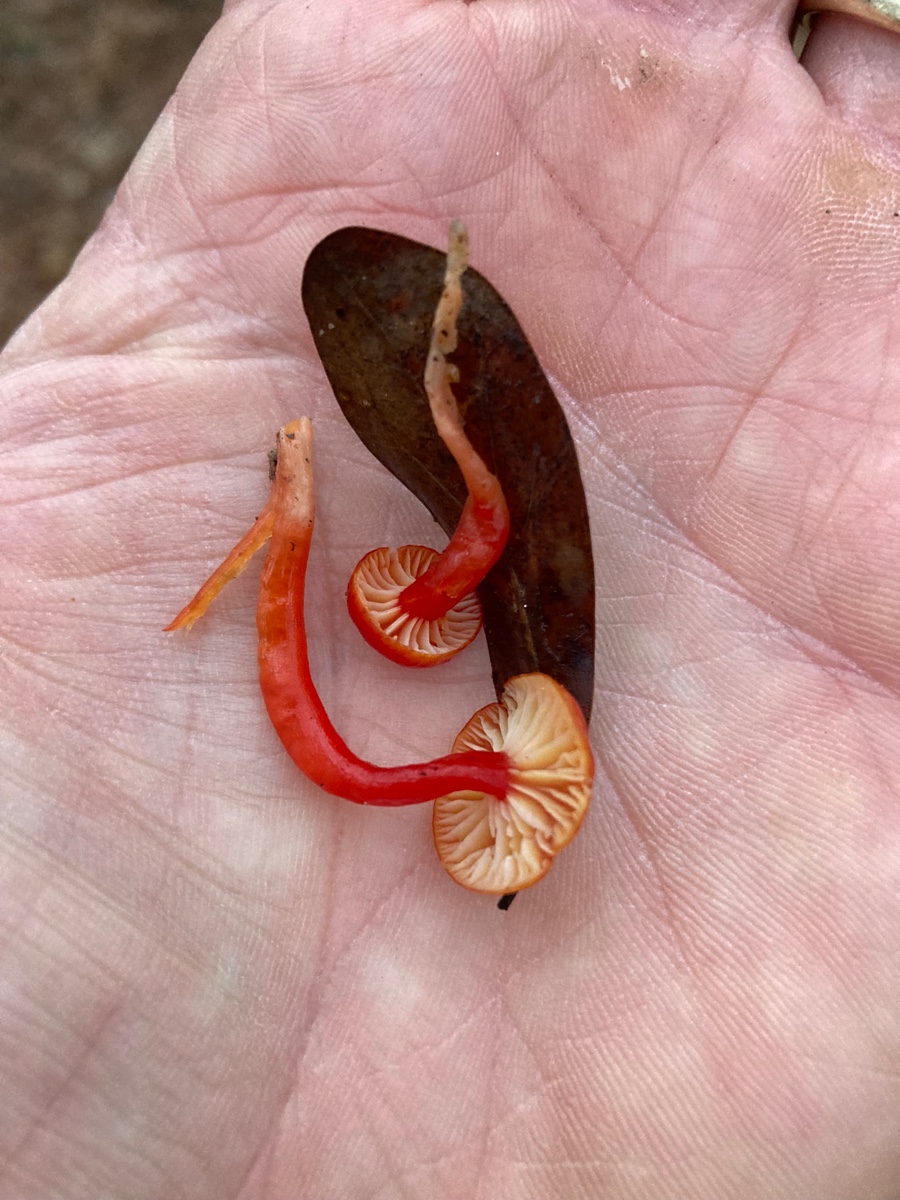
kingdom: Fungi
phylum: Basidiomycota
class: Agaricomycetes
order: Agaricales
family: Hygrophoraceae
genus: Hygrocybe
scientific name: Hygrocybe
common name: vokshat
